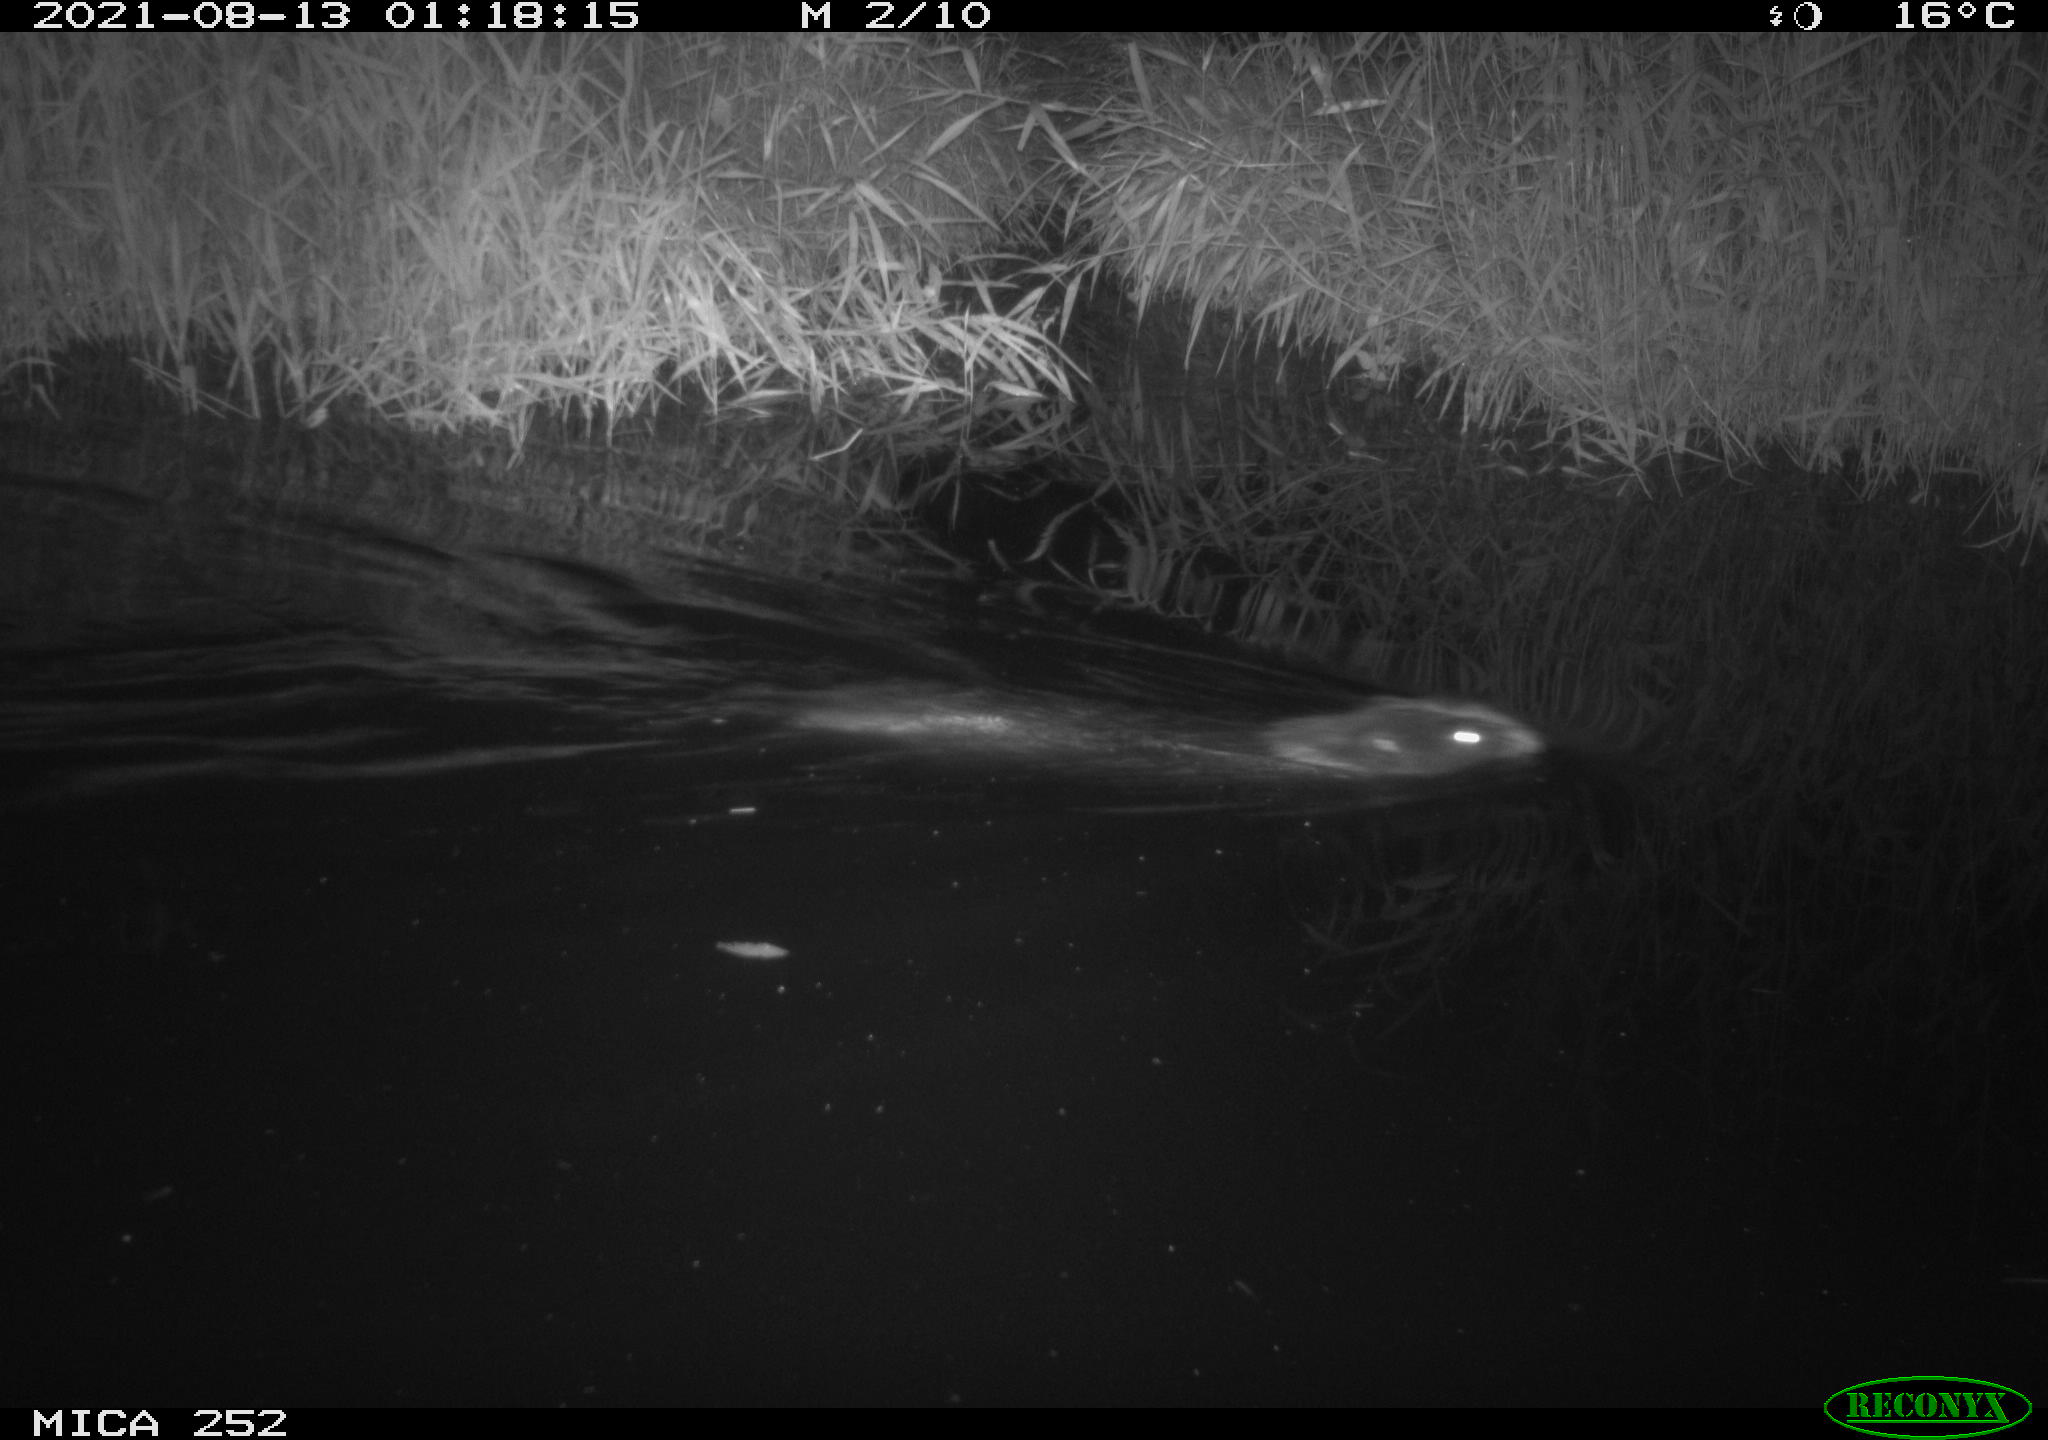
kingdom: Animalia
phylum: Chordata
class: Mammalia
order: Rodentia
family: Castoridae
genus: Castor
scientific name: Castor fiber
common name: Eurasian beaver
